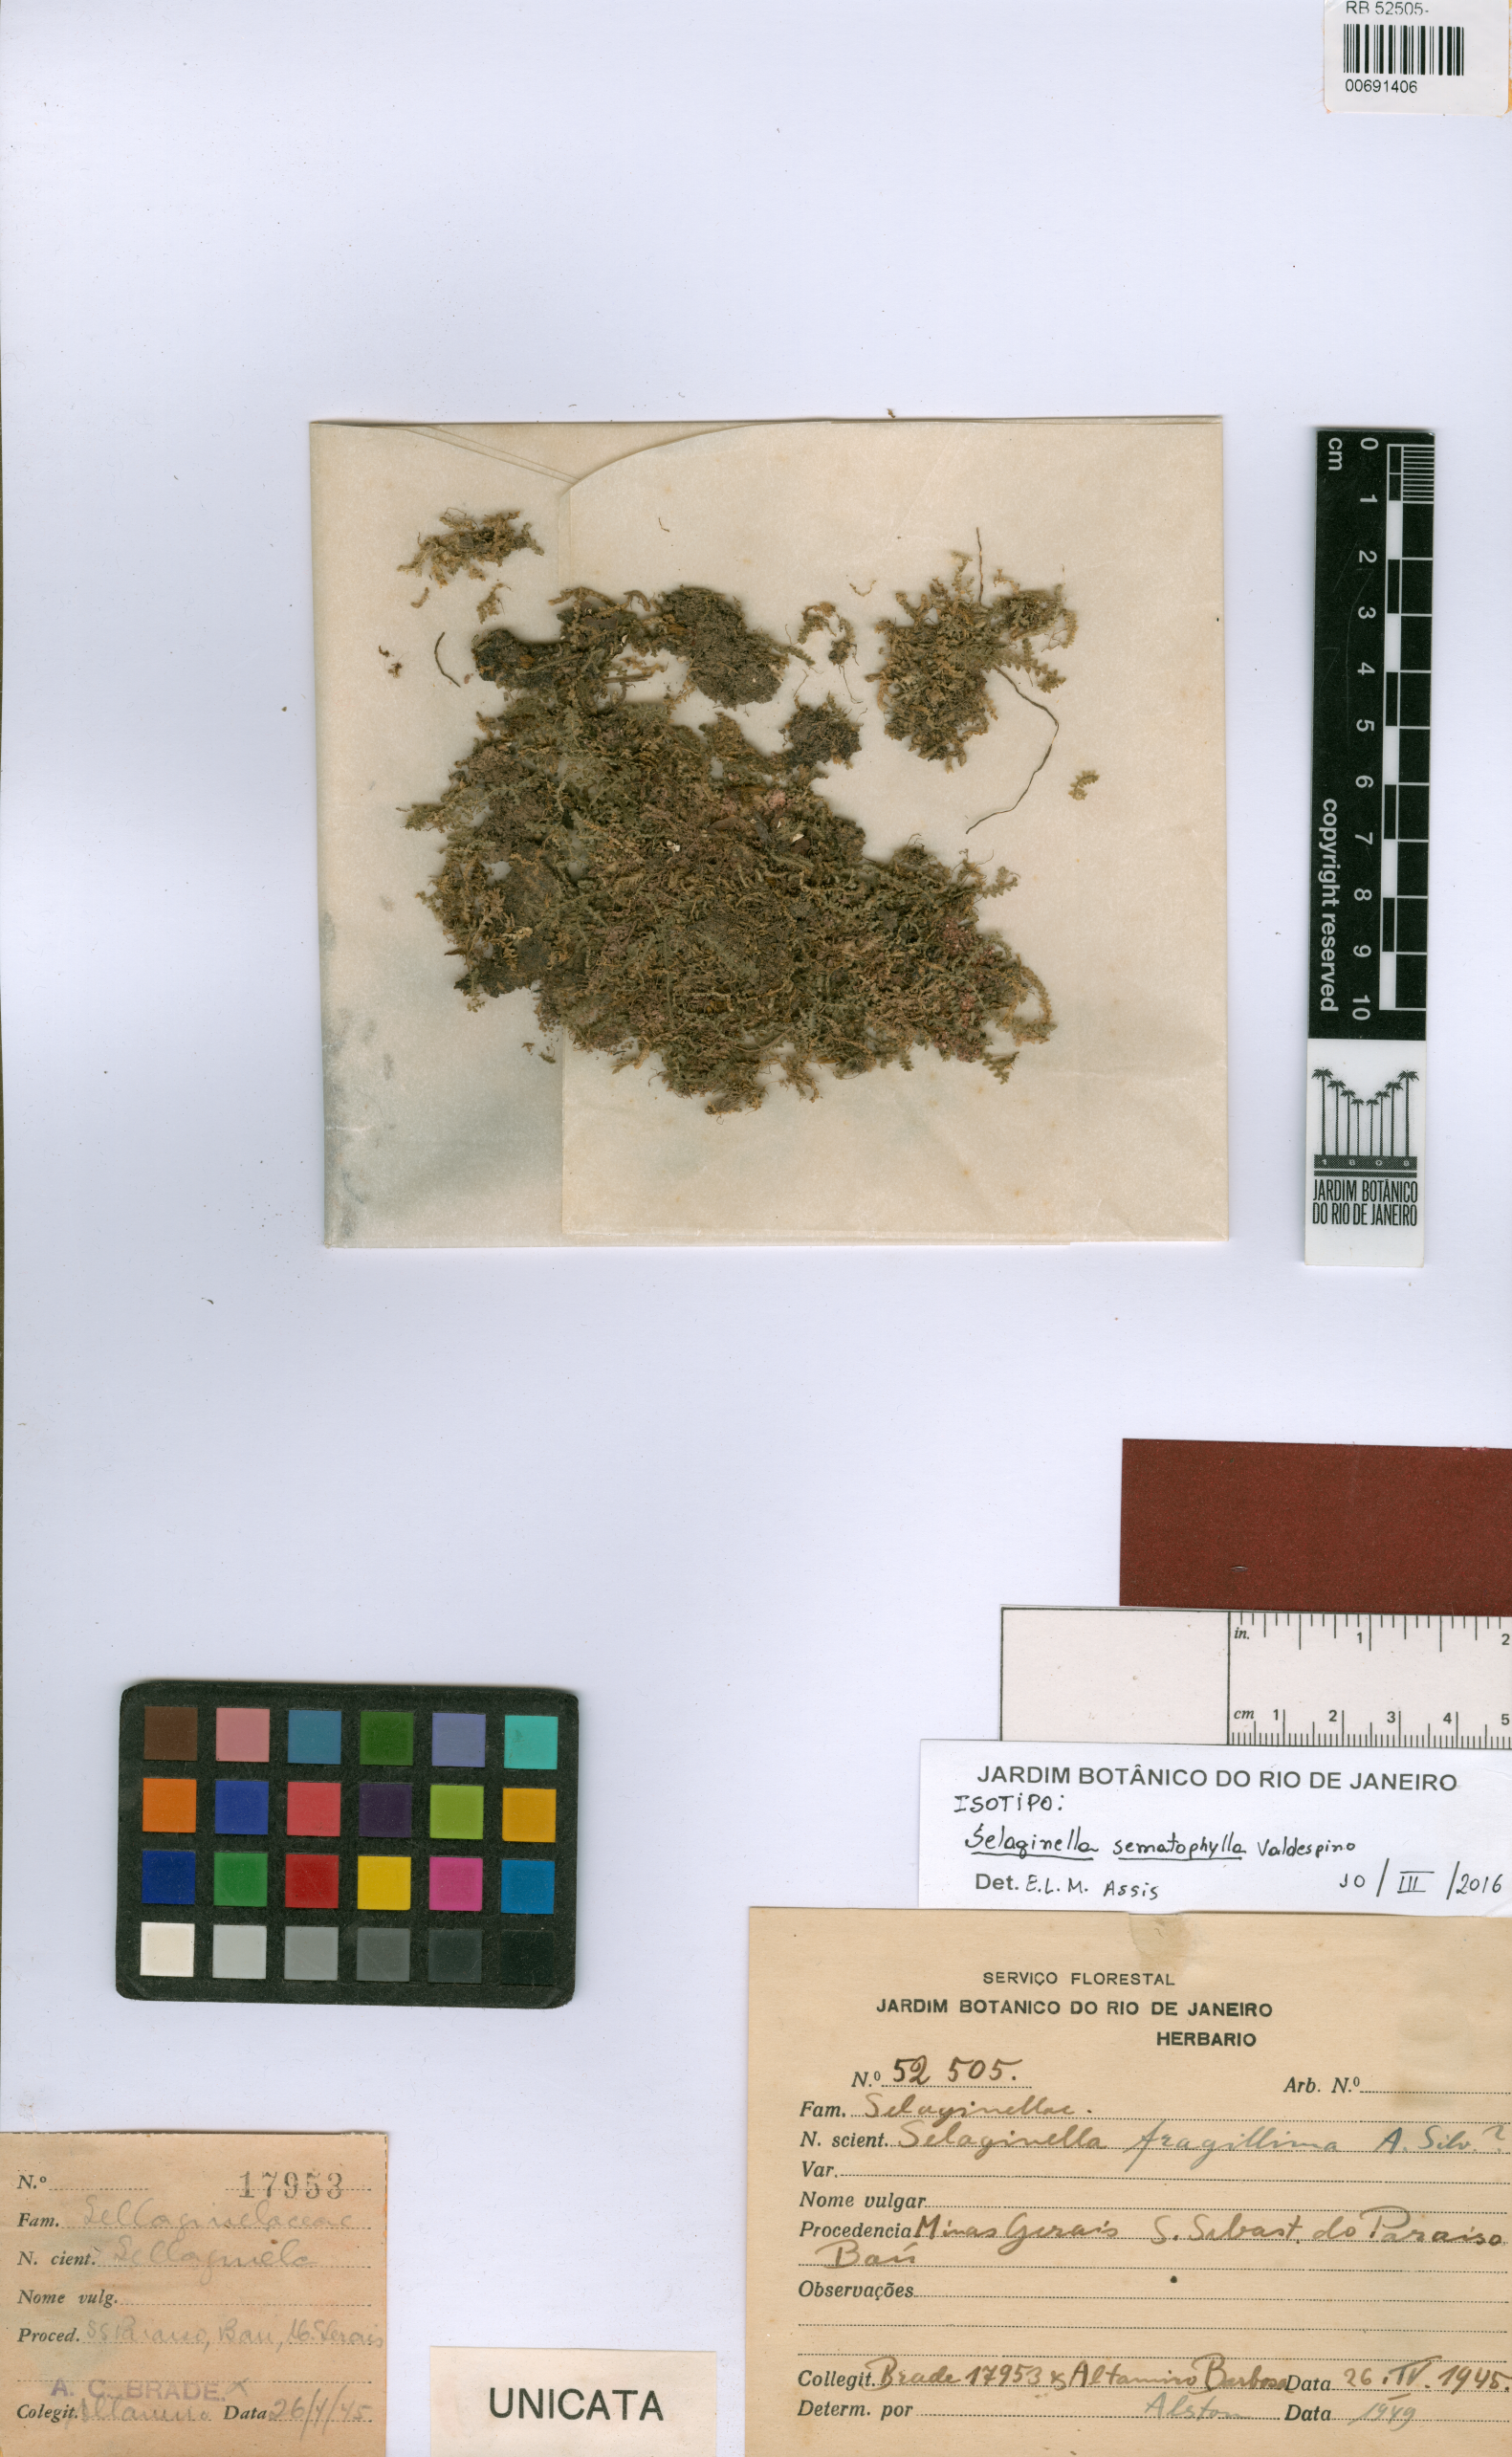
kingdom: Plantae
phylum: Tracheophyta
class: Lycopodiopsida
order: Selaginellales
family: Selaginellaceae
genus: Selaginella
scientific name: Selaginella sematophylla
